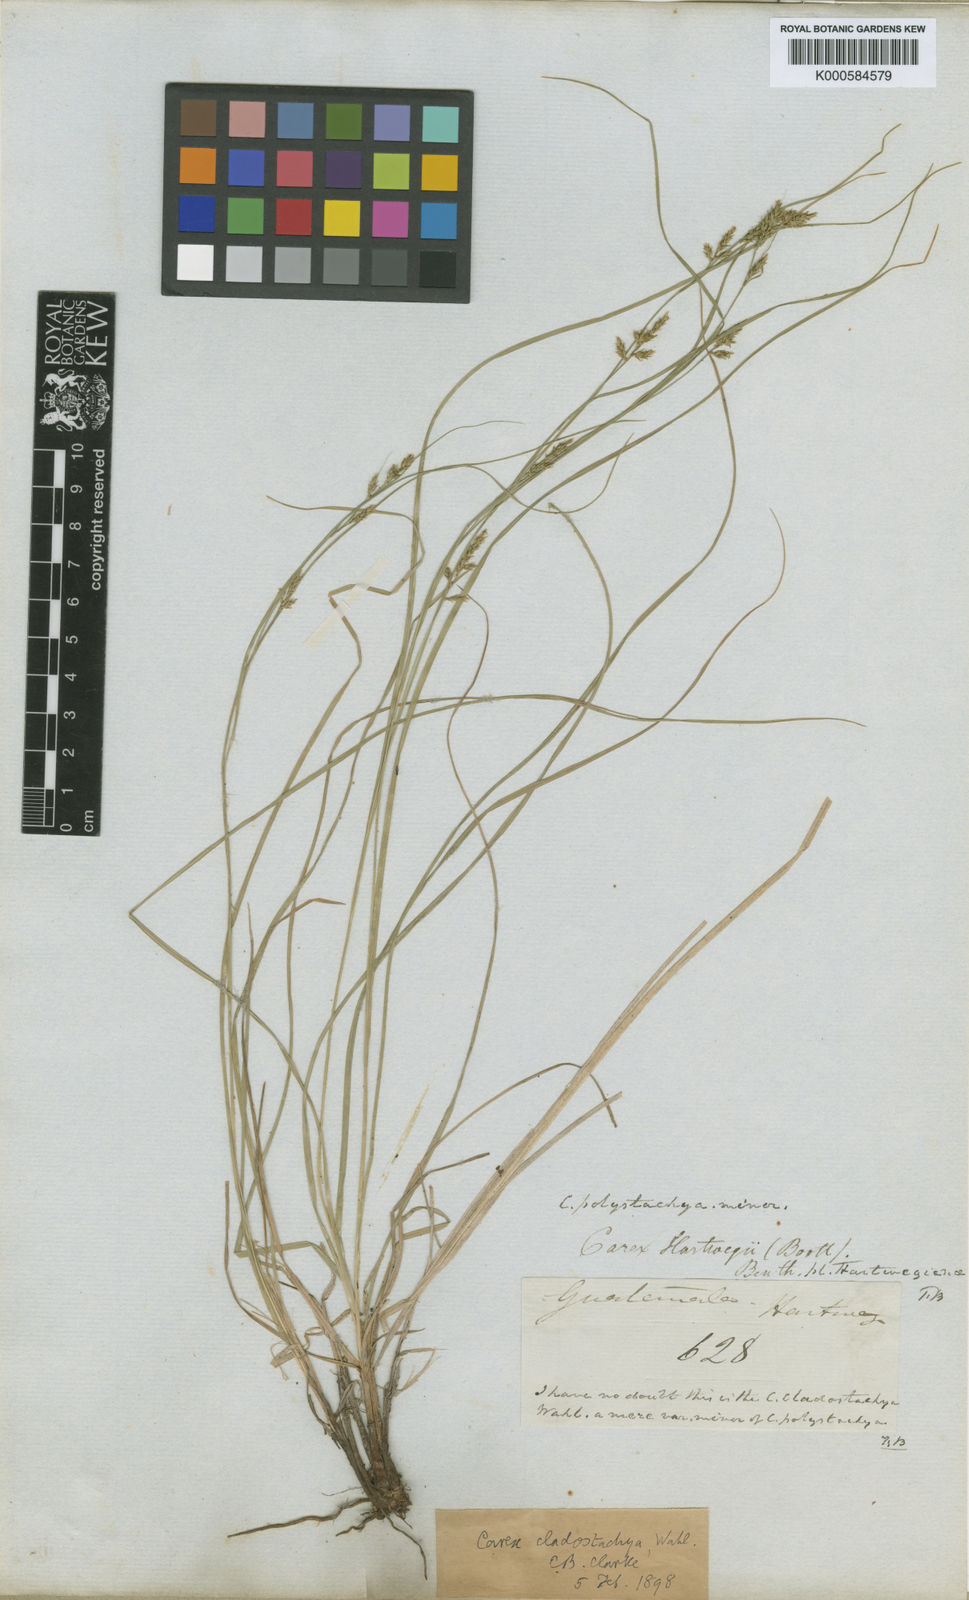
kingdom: Plantae
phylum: Tracheophyta
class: Liliopsida
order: Poales
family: Cyperaceae
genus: Carex
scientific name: Carex polystachya
